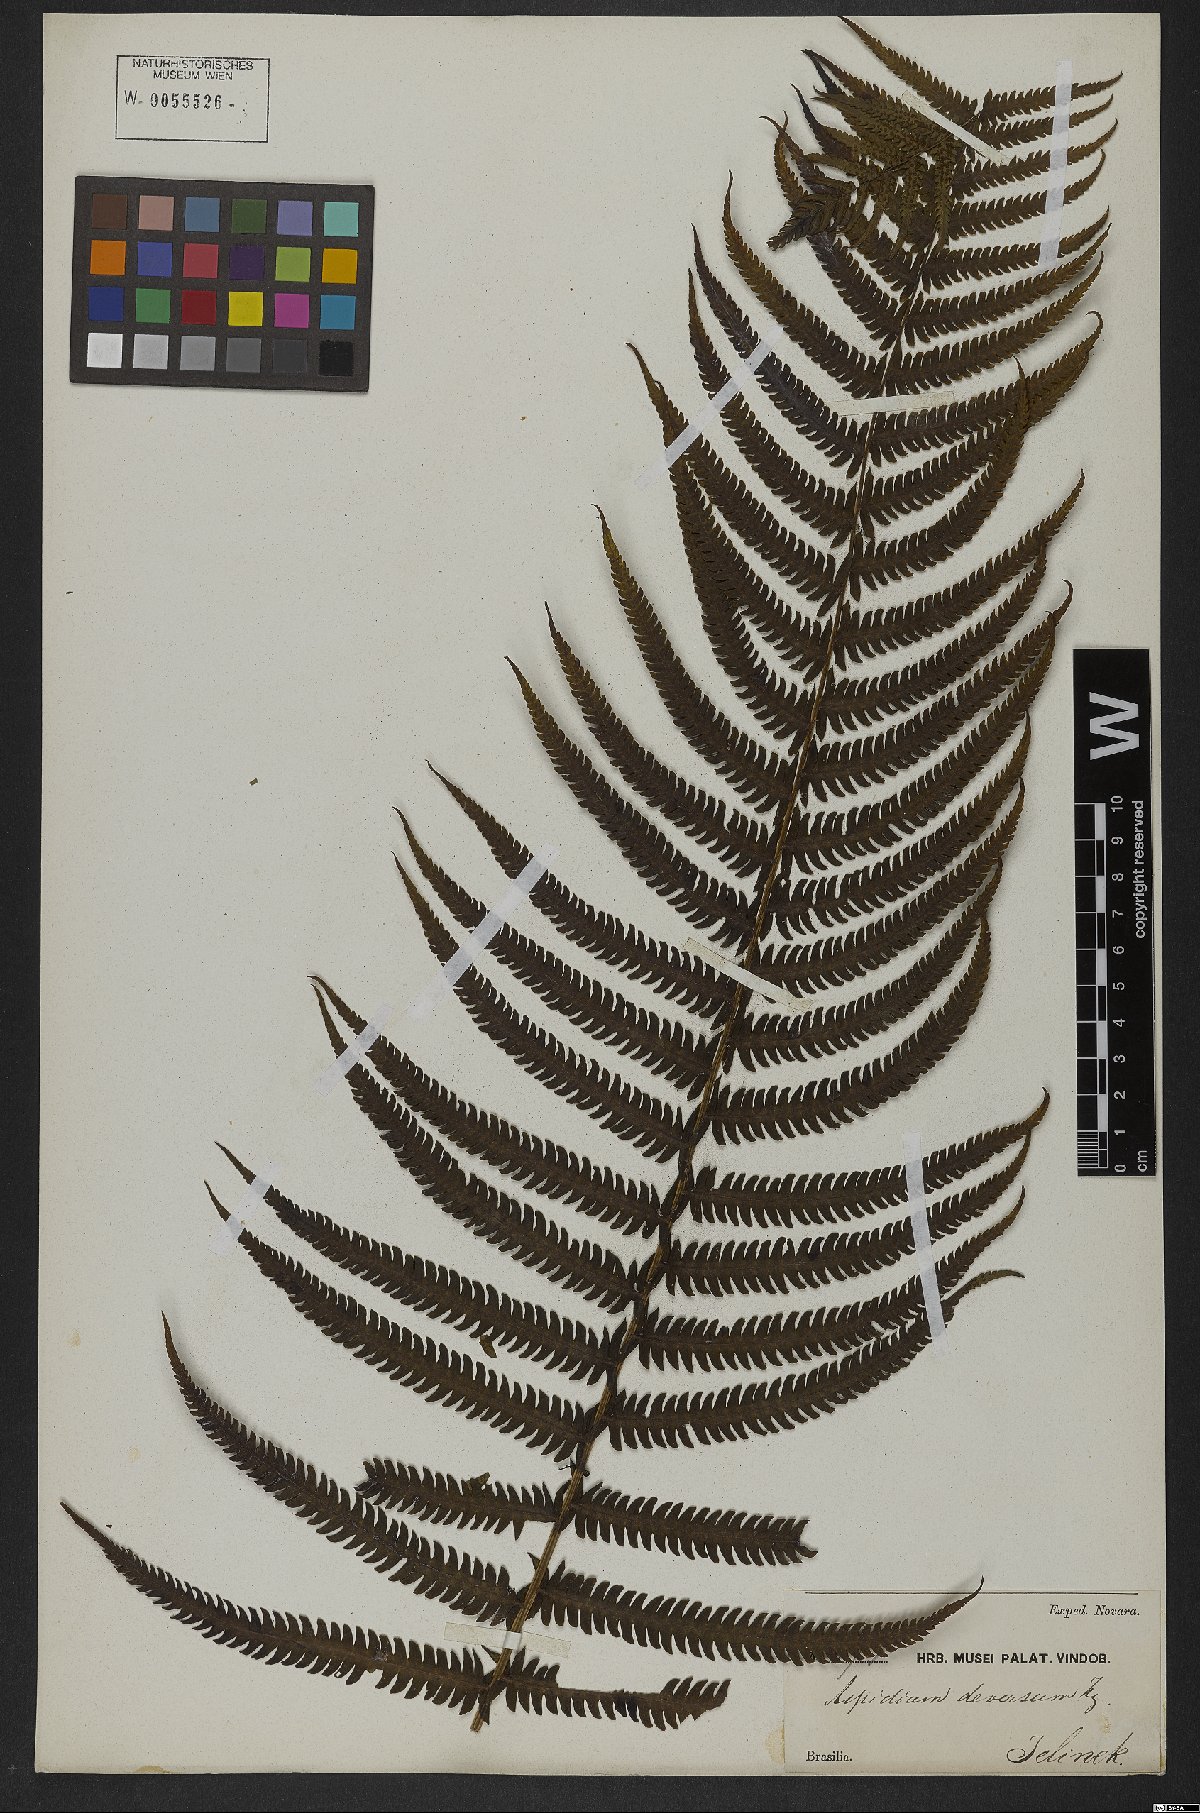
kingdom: Plantae
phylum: Tracheophyta
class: Polypodiopsida
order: Polypodiales
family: Thelypteridaceae
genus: Pelazoneuron
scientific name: Pelazoneuron patens
